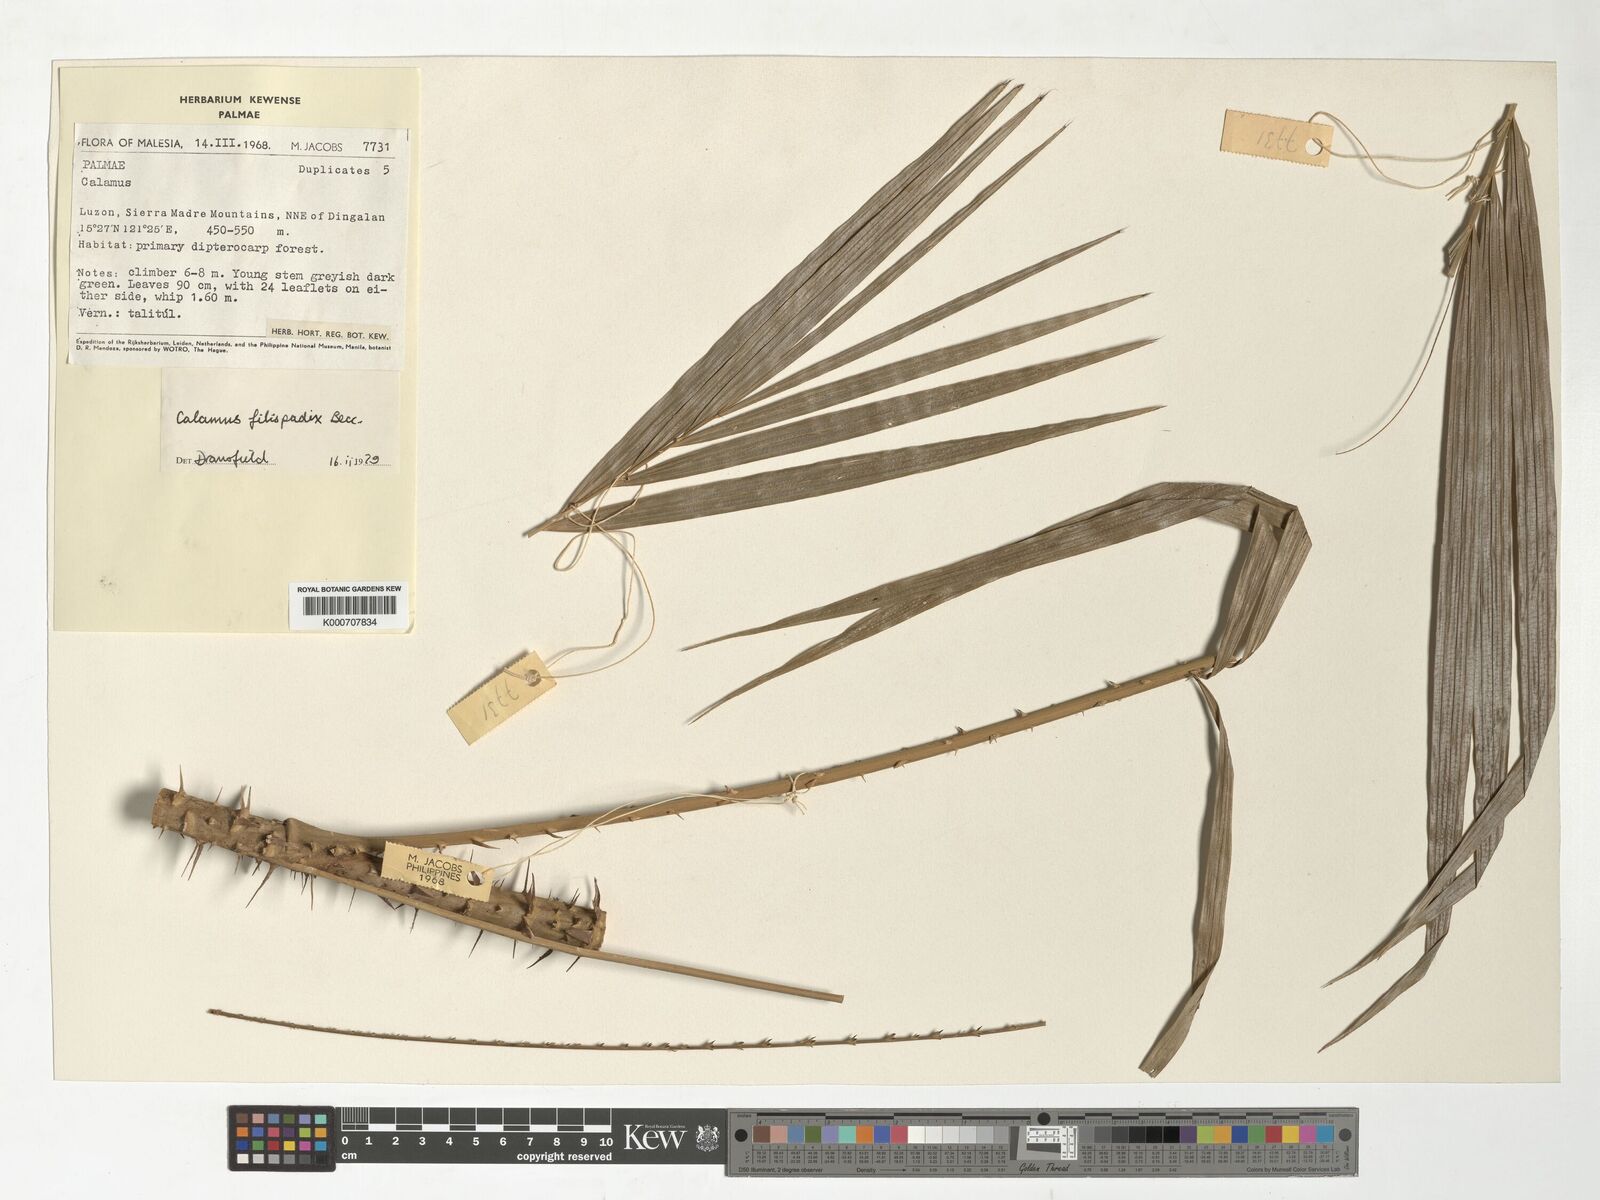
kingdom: Plantae
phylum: Tracheophyta
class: Liliopsida
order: Arecales
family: Arecaceae
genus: Calamus
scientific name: Calamus filispadix
